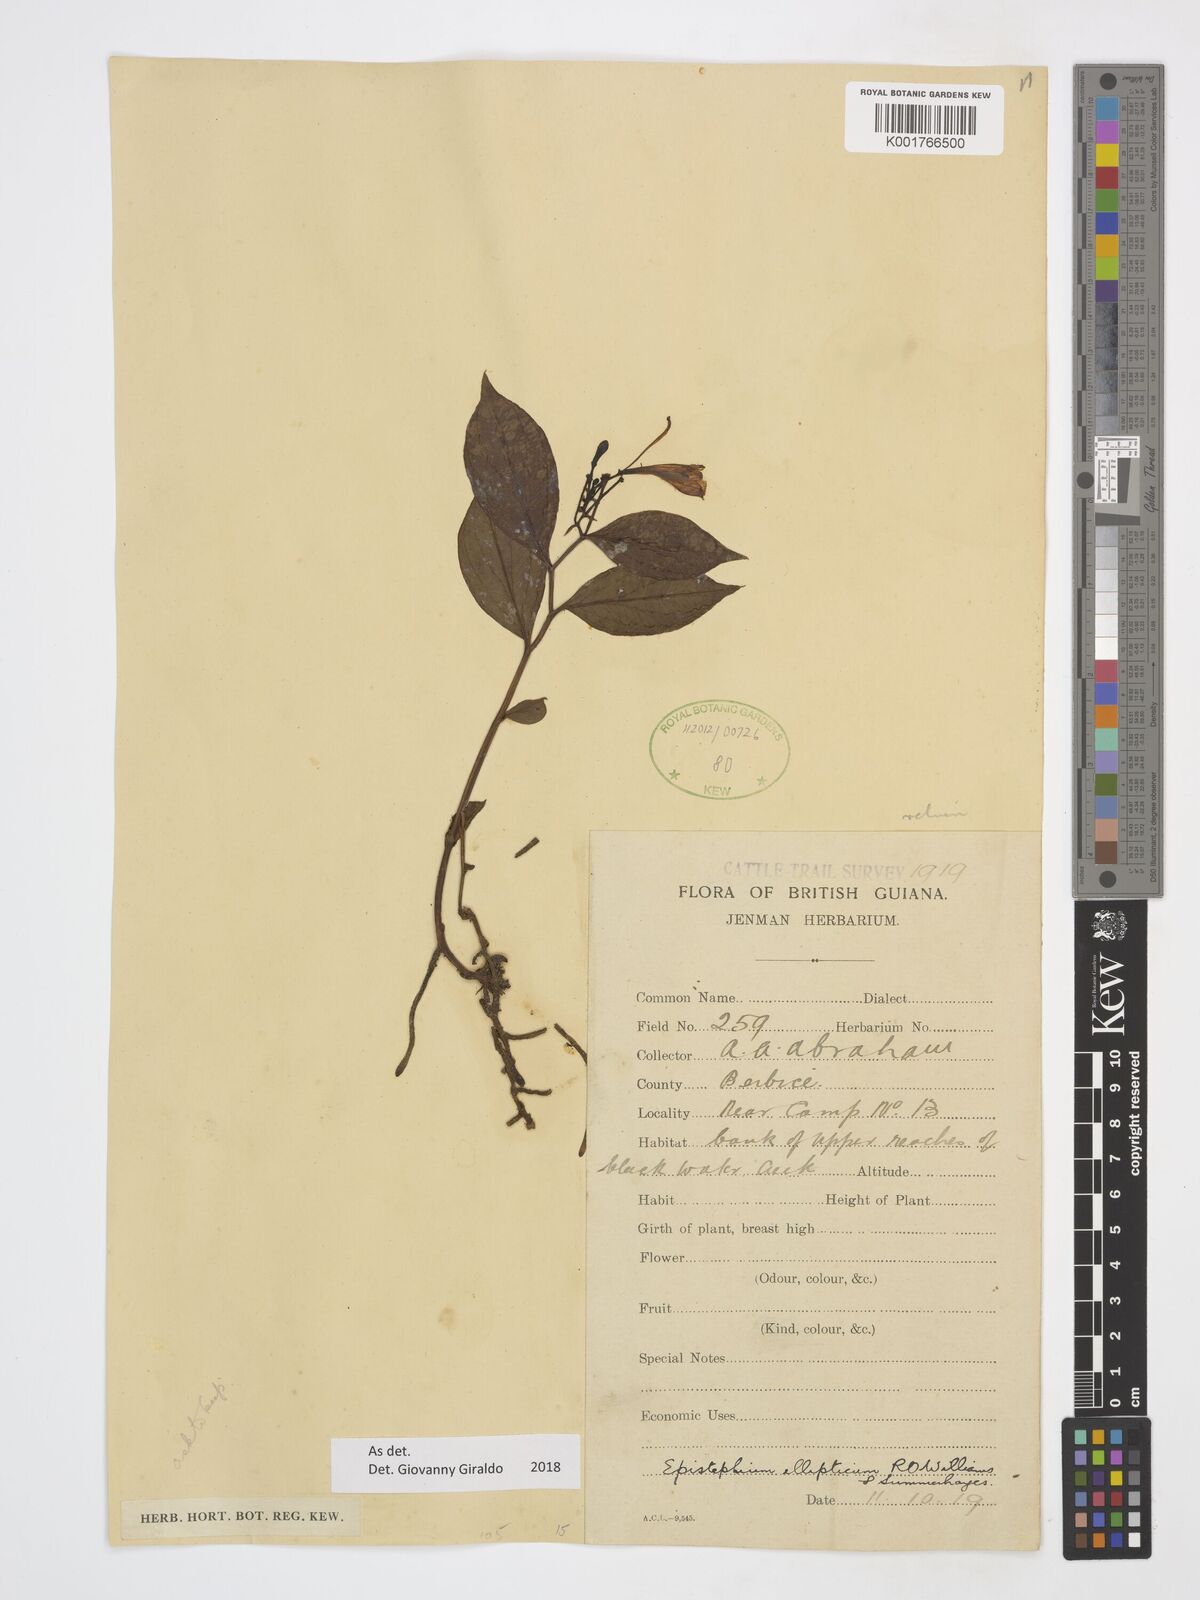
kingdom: Plantae
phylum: Tracheophyta
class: Liliopsida
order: Asparagales
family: Orchidaceae
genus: Epistephium
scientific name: Epistephium ellipticum
